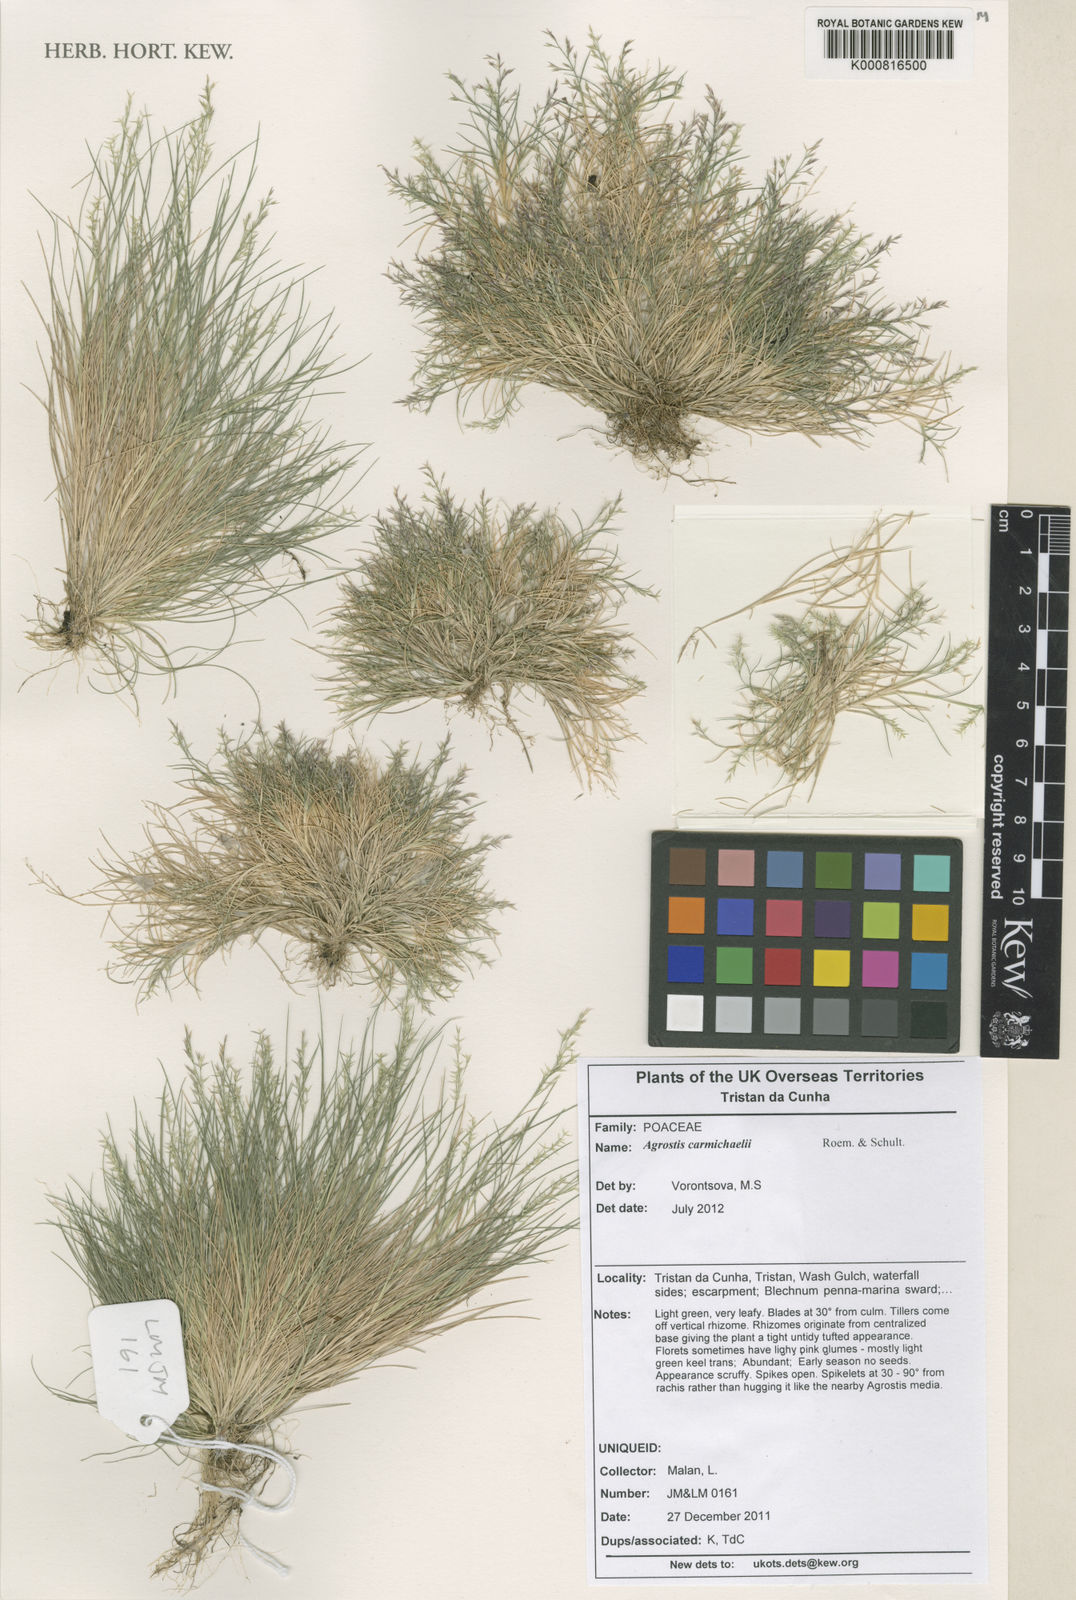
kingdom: Plantae
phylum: Tracheophyta
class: Liliopsida
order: Poales
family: Poaceae
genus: Agrostis
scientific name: Agrostis carmichaelii
